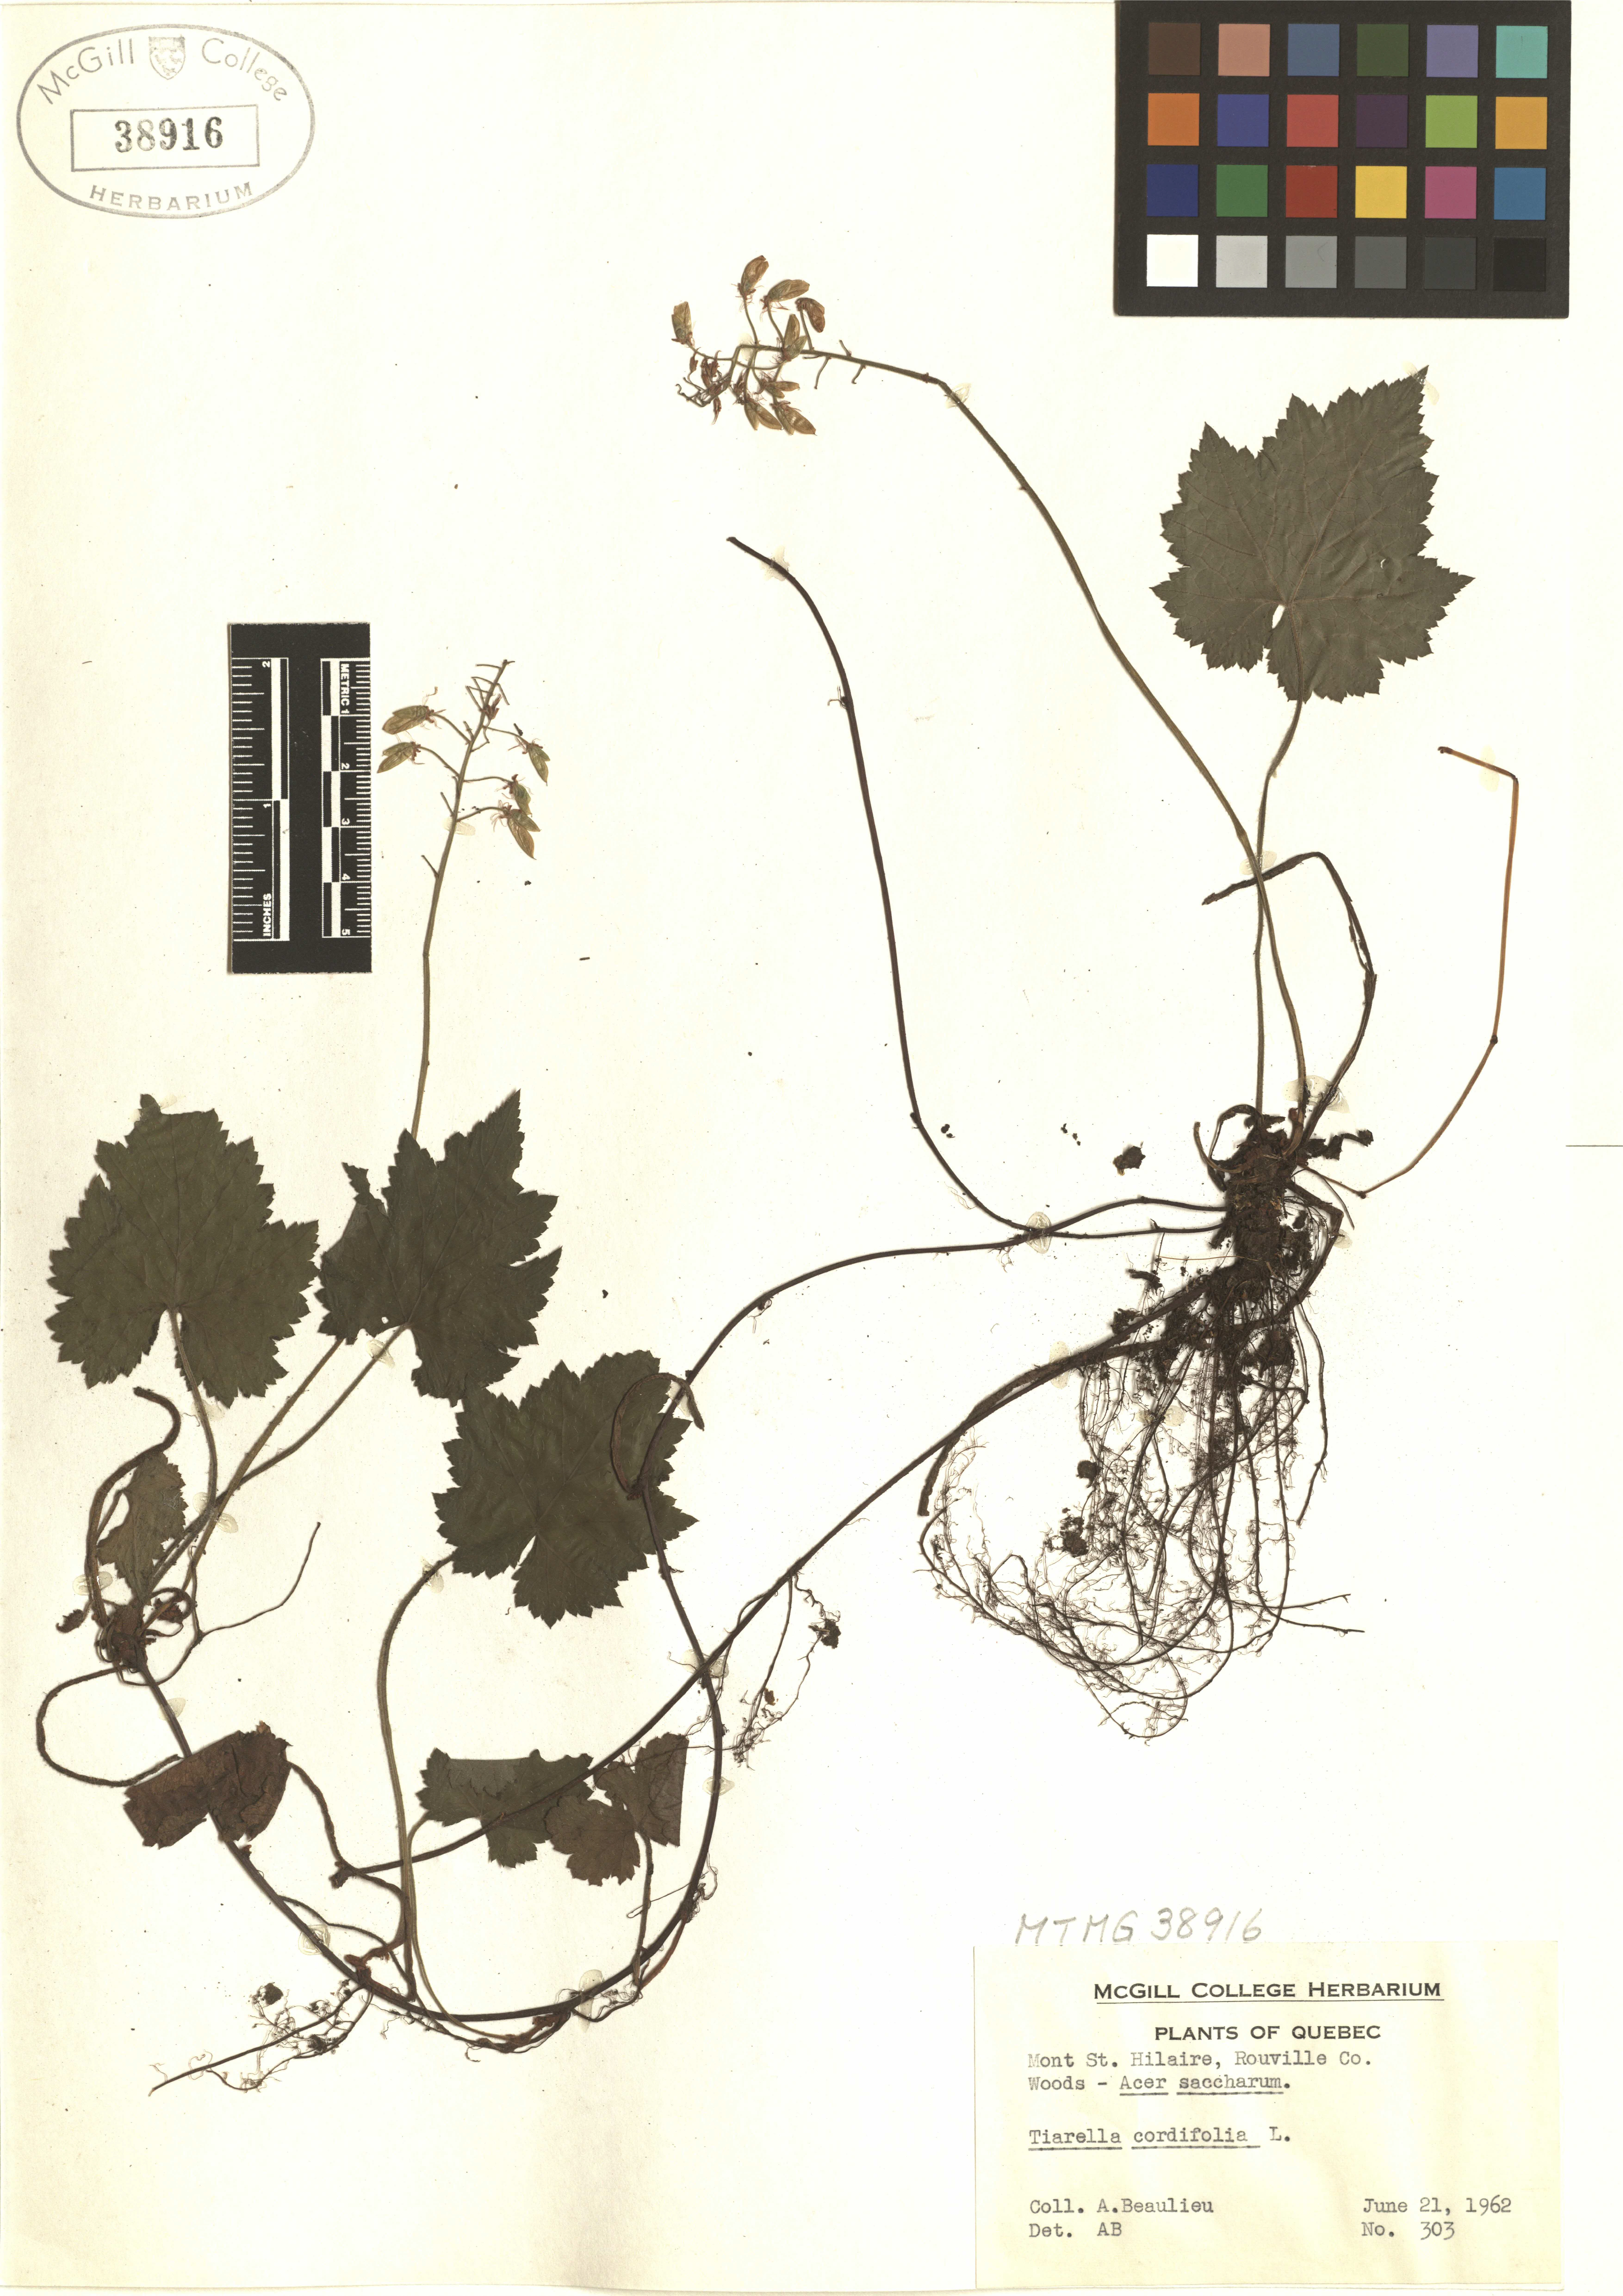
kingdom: Plantae
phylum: Tracheophyta
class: Magnoliopsida
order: Saxifragales
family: Saxifragaceae
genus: Tiarella
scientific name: Tiarella cordifolia
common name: Foamflower
